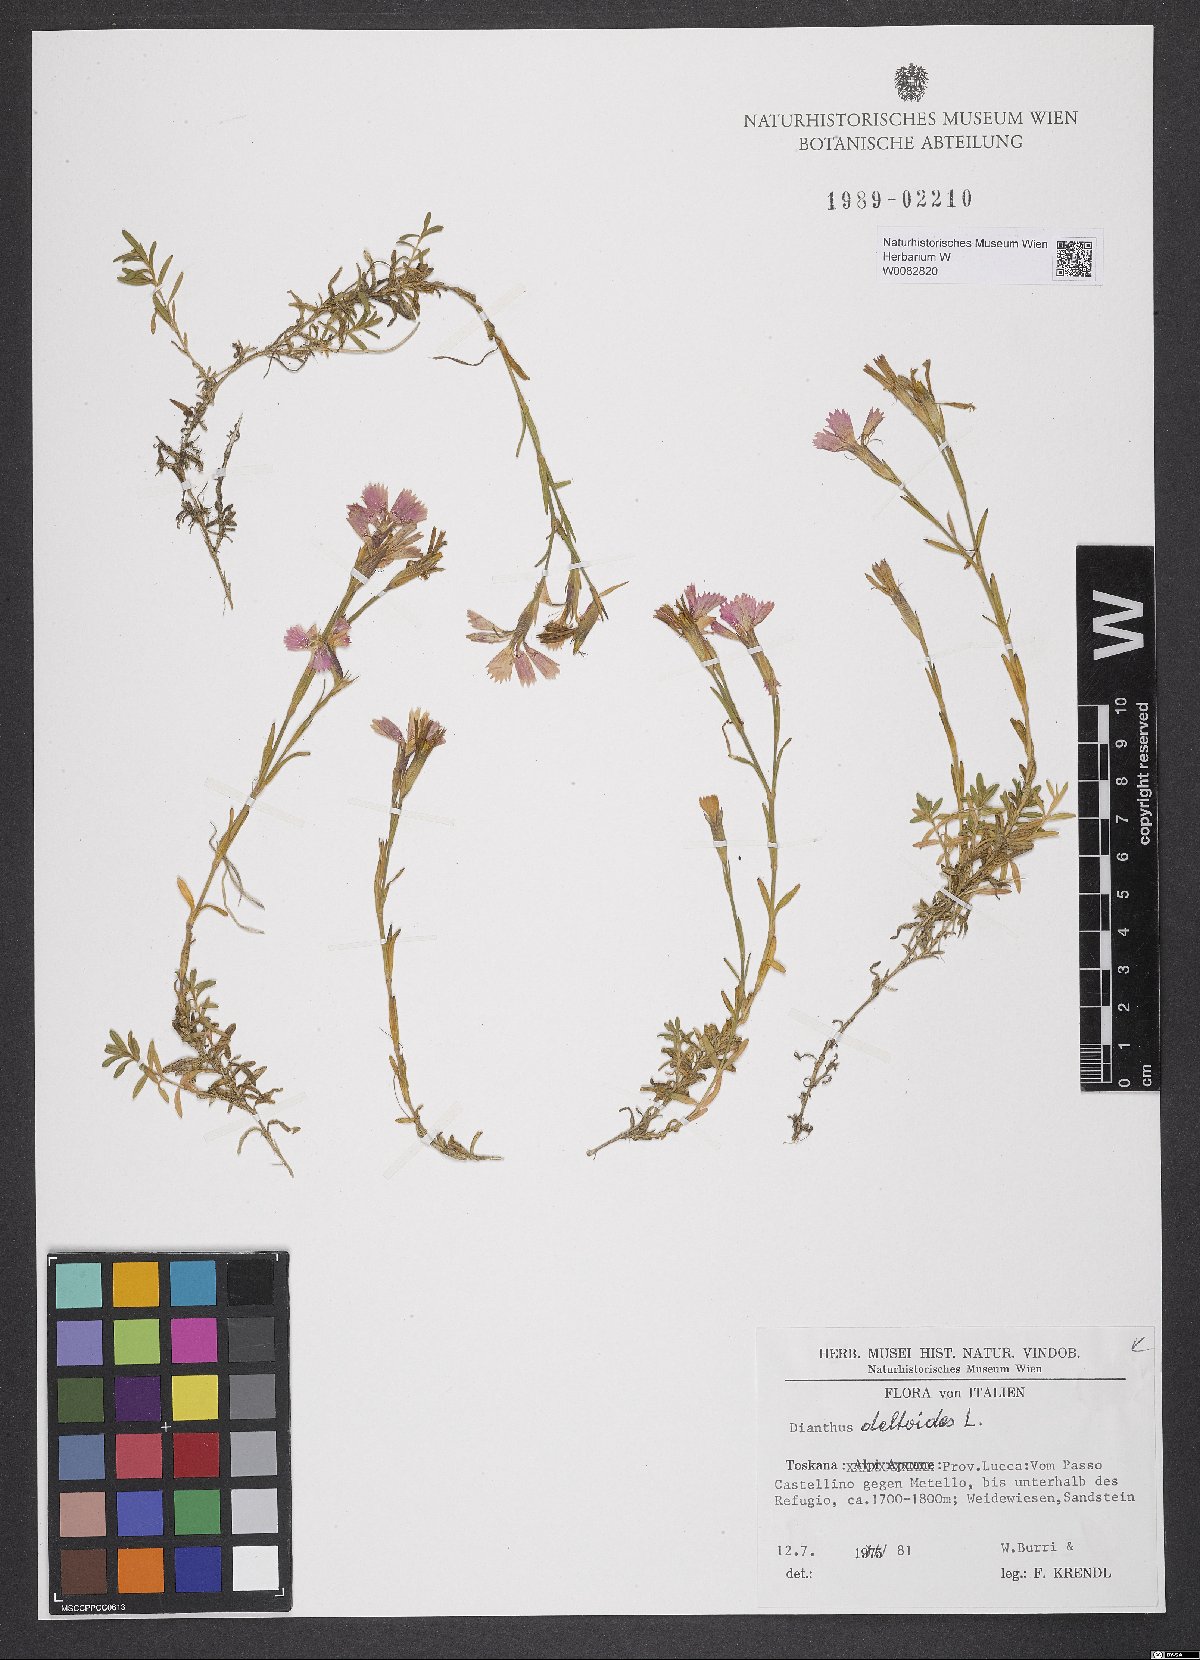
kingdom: Plantae
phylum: Tracheophyta
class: Magnoliopsida
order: Caryophyllales
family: Caryophyllaceae
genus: Dianthus
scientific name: Dianthus deltoides
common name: Maiden pink
